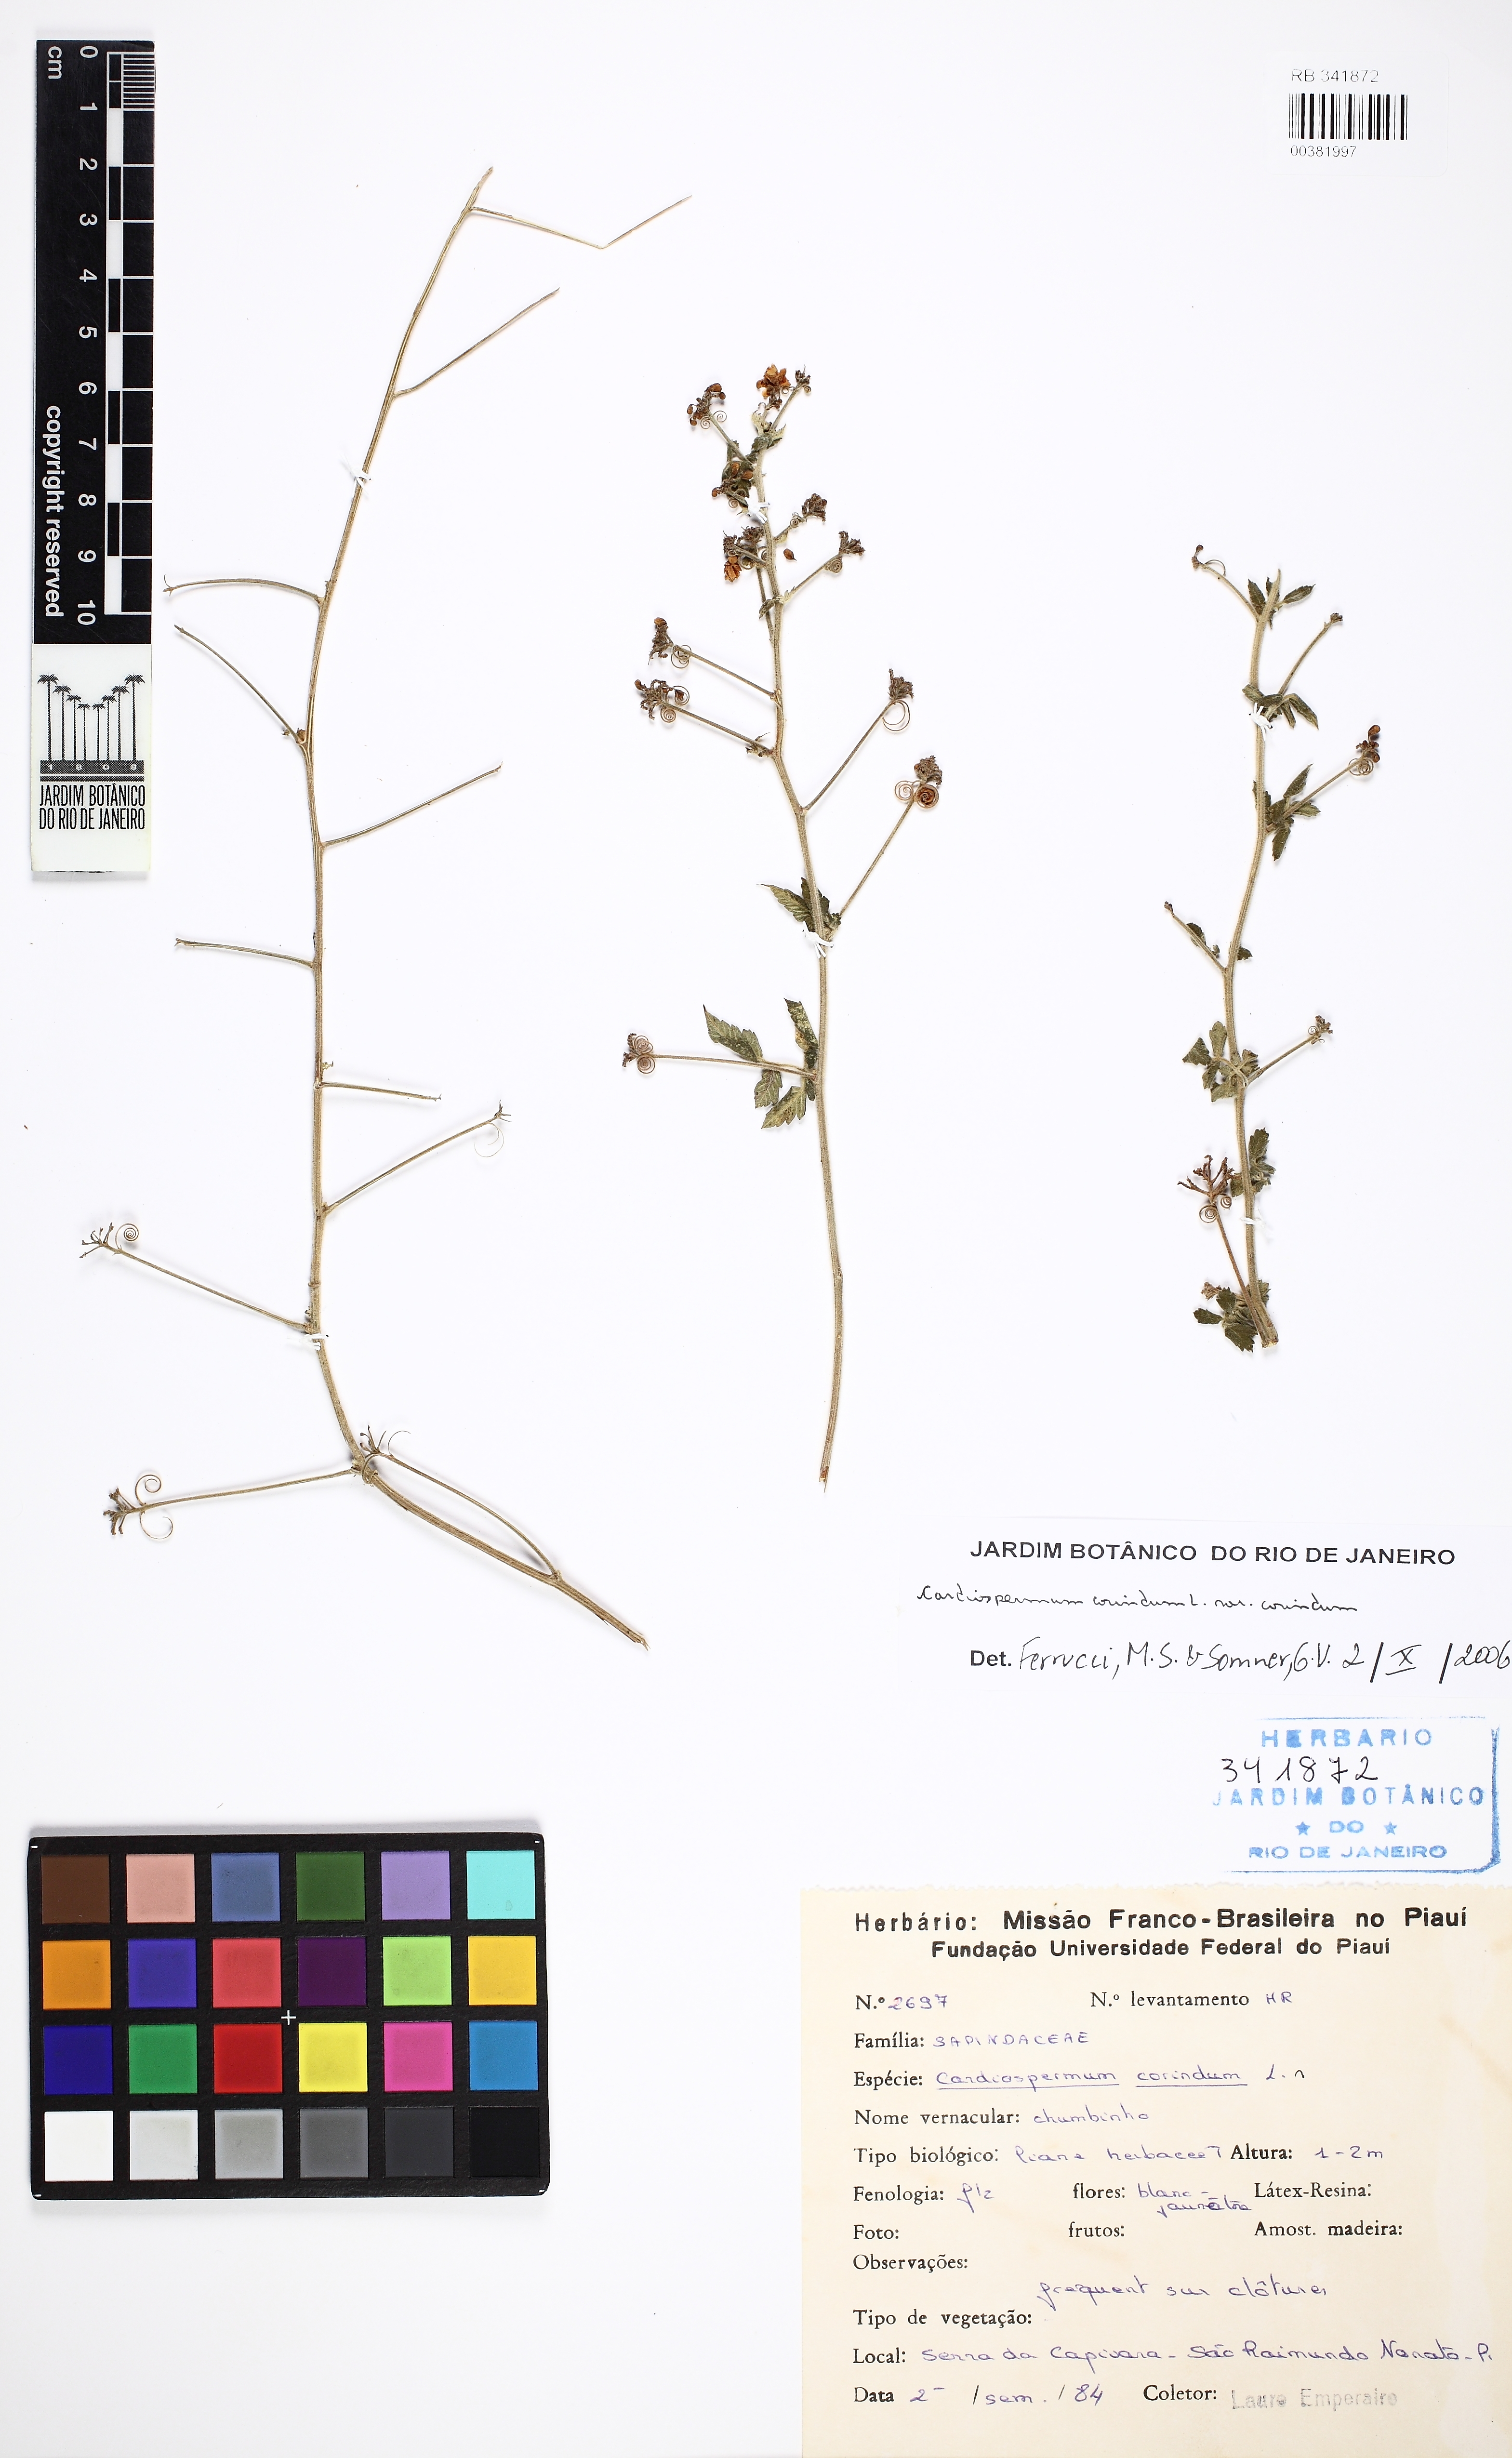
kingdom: Plantae
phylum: Tracheophyta
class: Magnoliopsida
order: Sapindales
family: Sapindaceae
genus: Cardiospermum
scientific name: Cardiospermum corindum
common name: Faux persil
